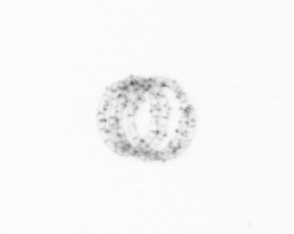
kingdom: Chromista
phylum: Ochrophyta
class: Bacillariophyceae
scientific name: Bacillariophyceae
